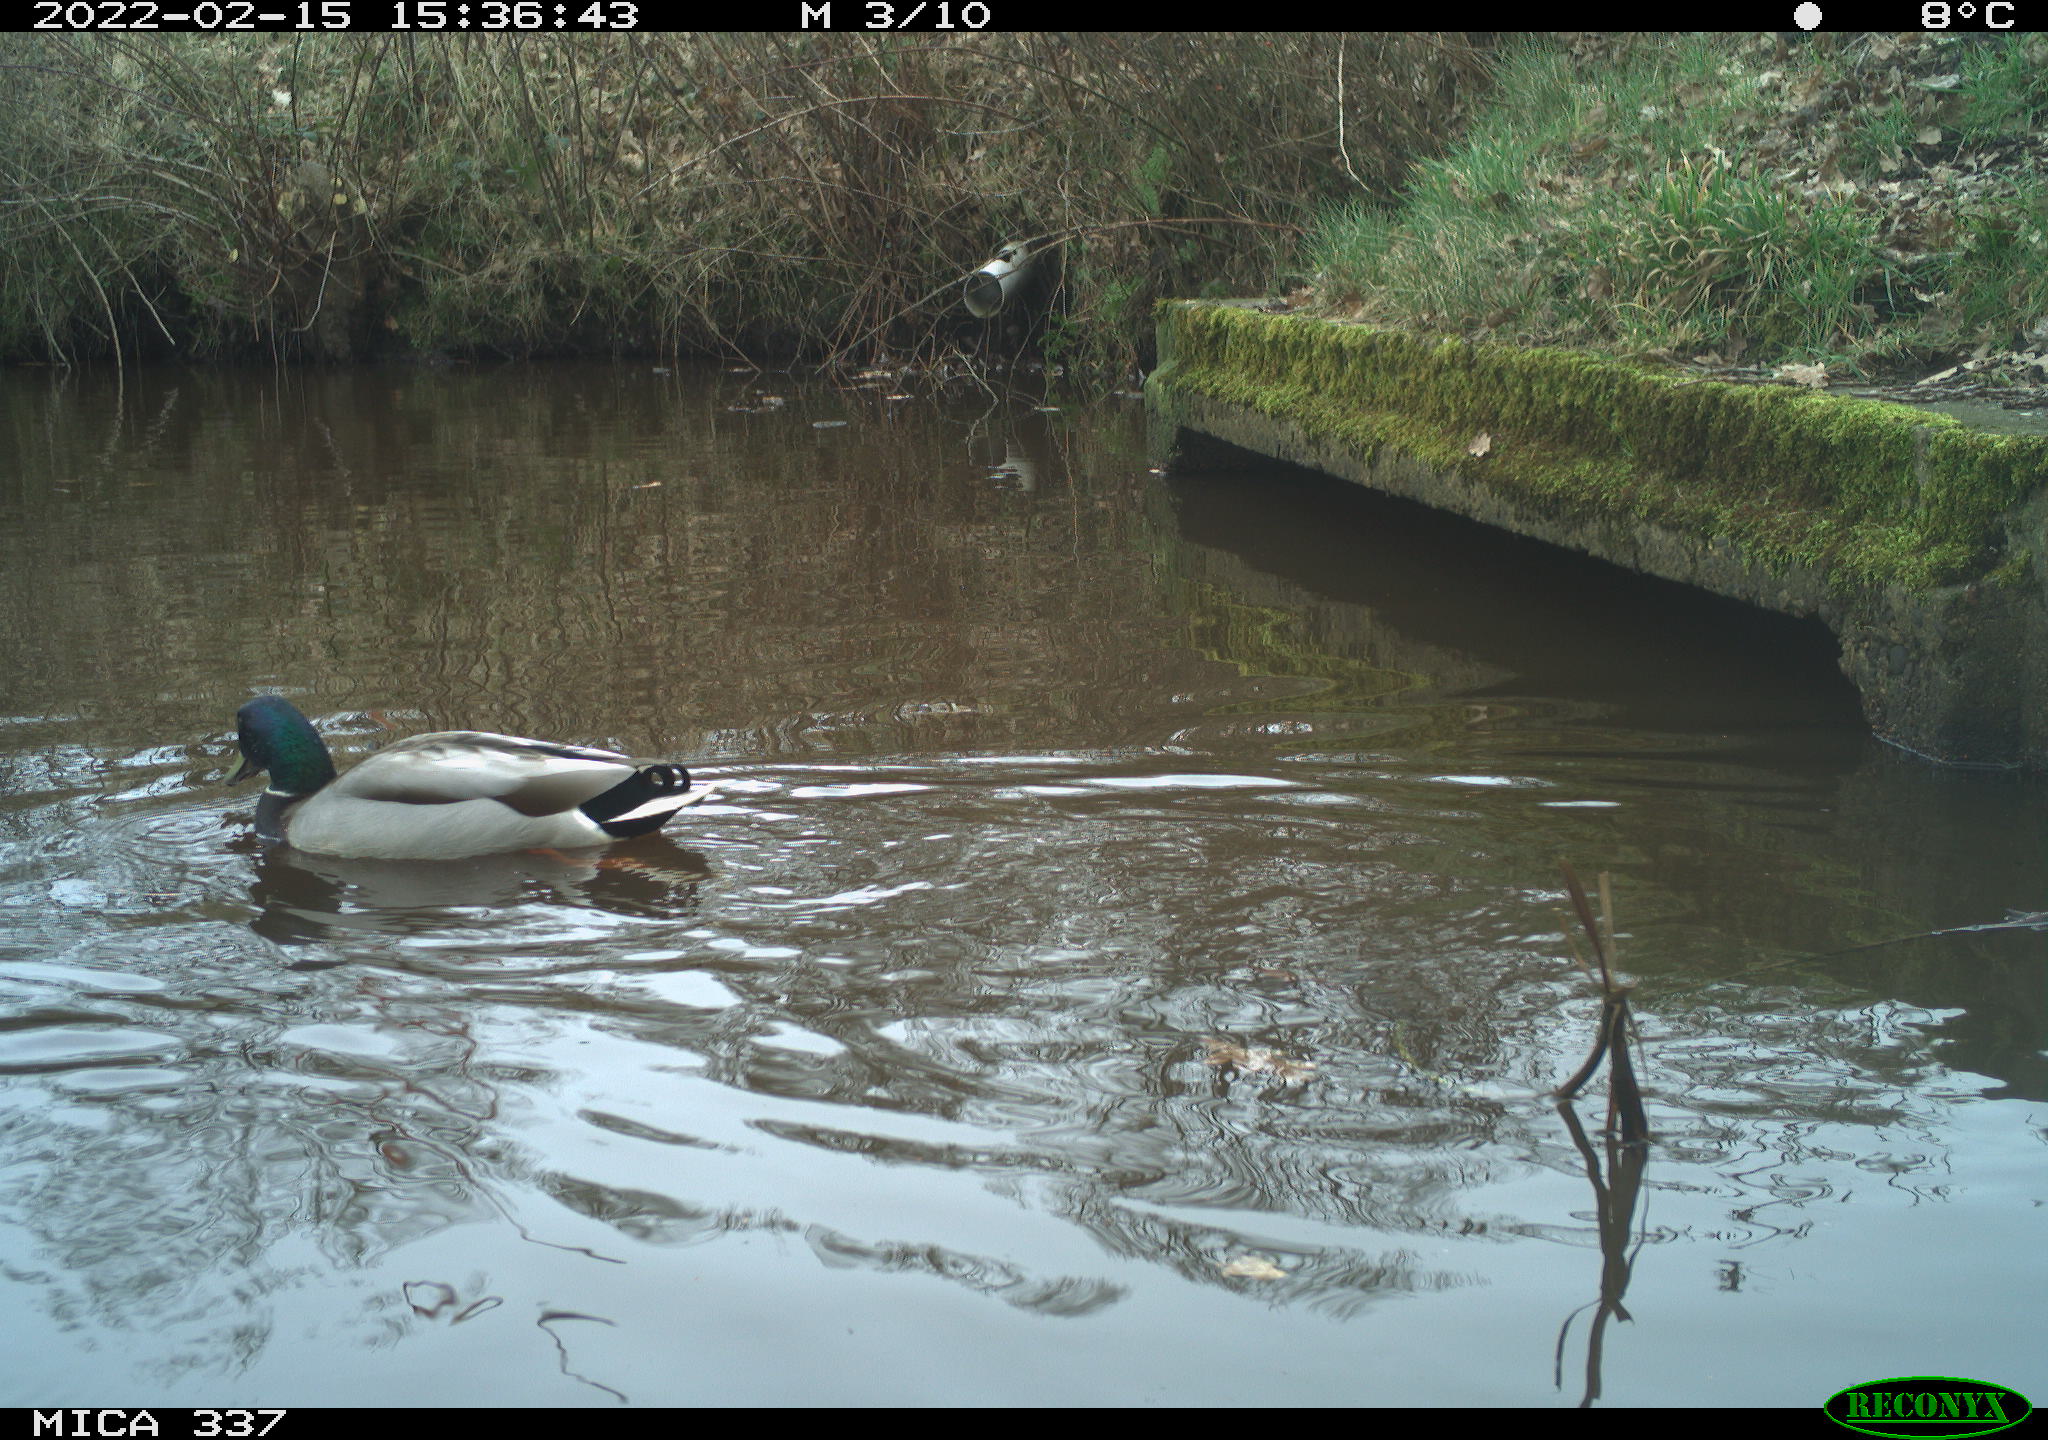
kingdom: Animalia
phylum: Chordata
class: Aves
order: Anseriformes
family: Anatidae
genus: Anas
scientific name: Anas platyrhynchos
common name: Mallard
